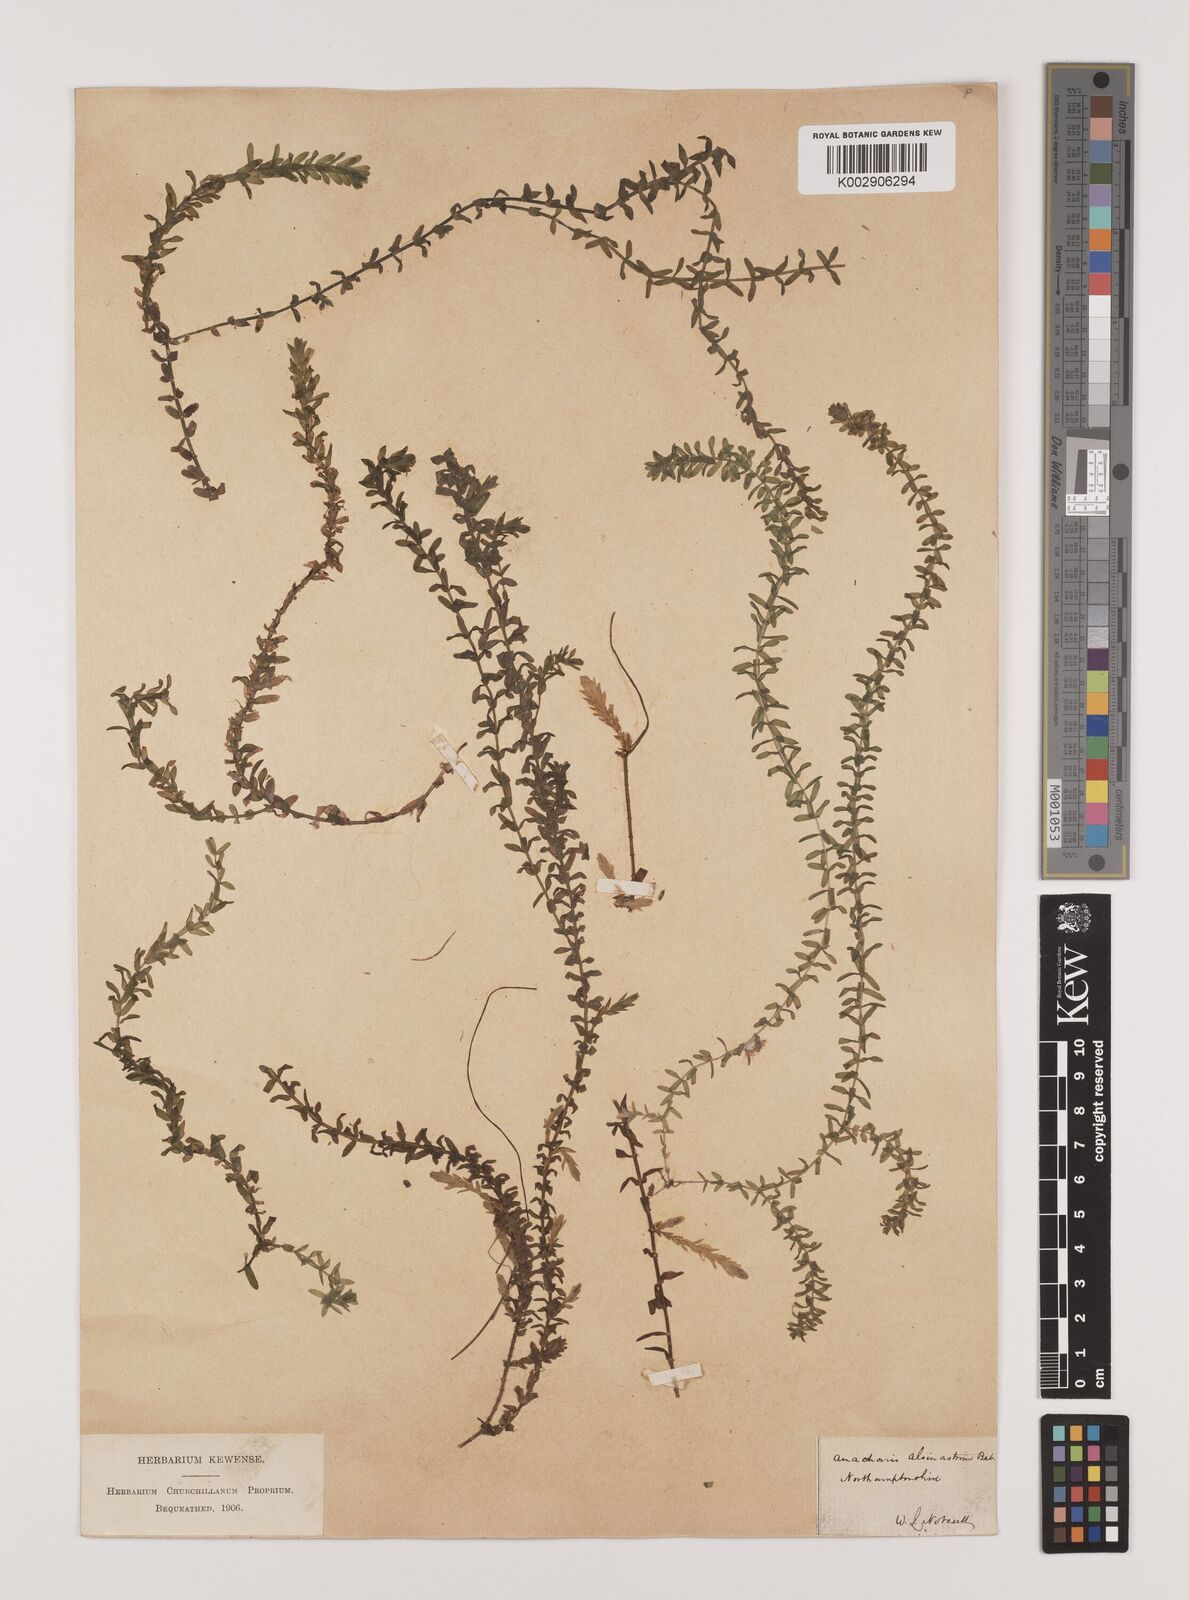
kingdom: Plantae
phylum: Tracheophyta
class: Liliopsida
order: Alismatales
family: Hydrocharitaceae
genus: Elodea
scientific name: Elodea canadensis
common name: Canadian waterweed
